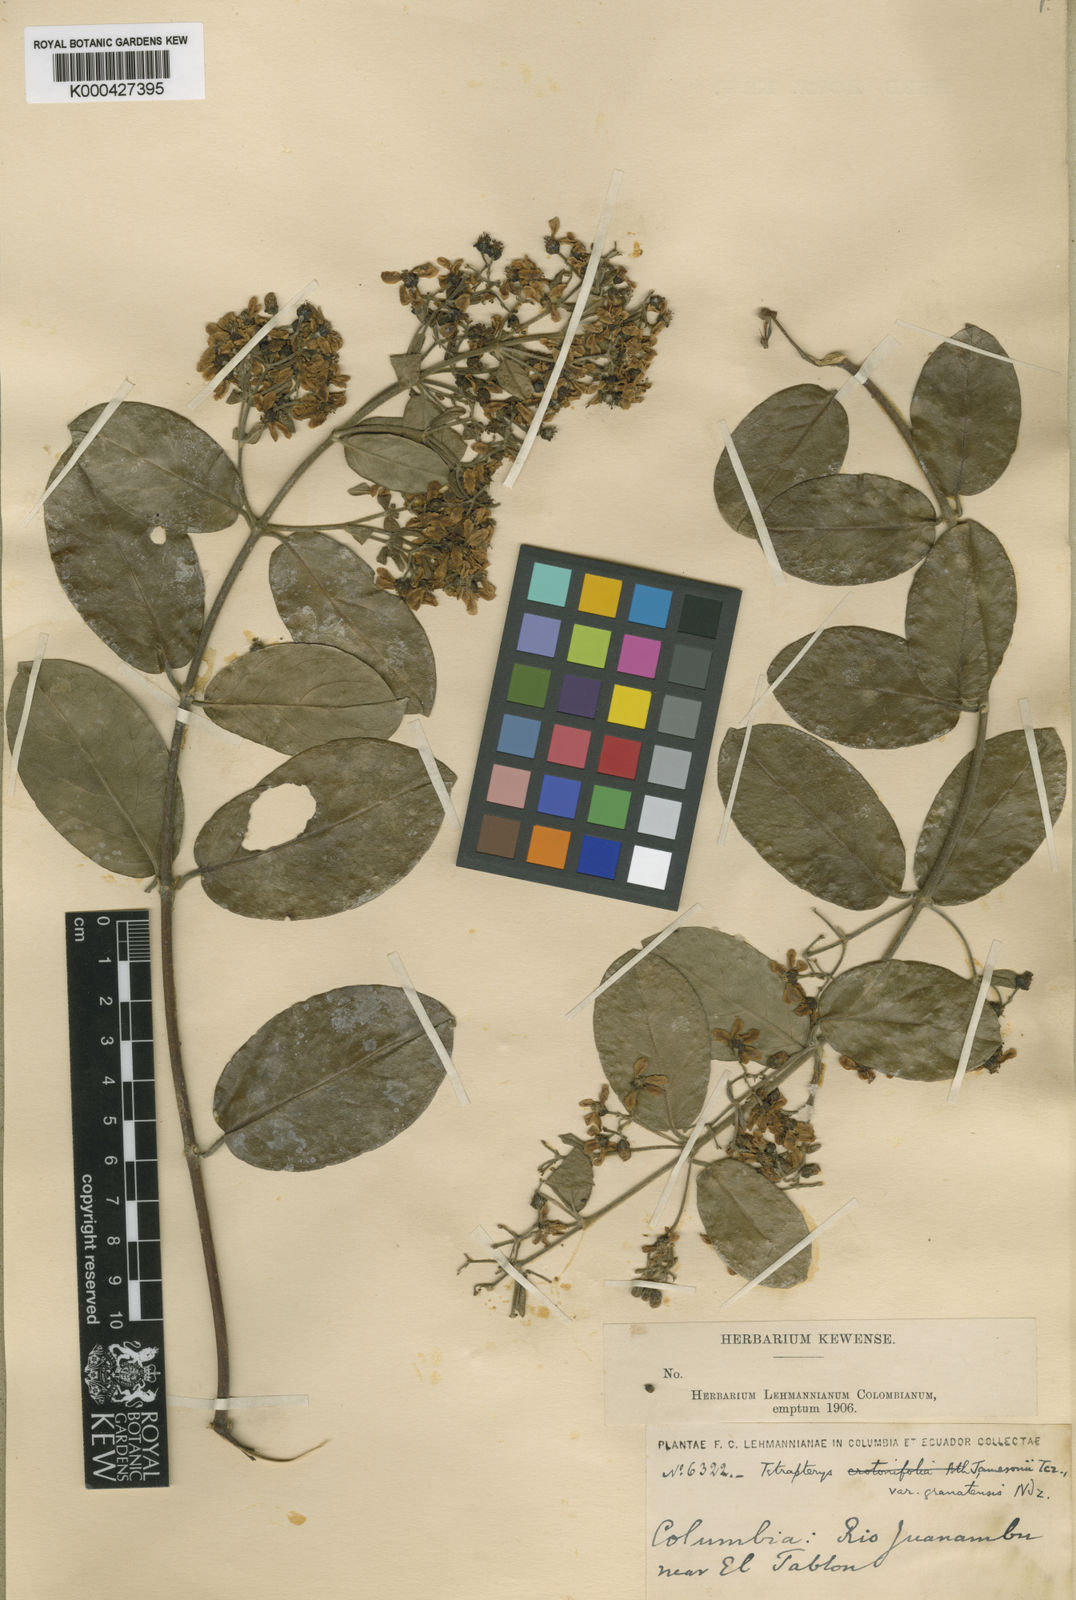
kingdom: Plantae
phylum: Tracheophyta
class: Magnoliopsida
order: Malpighiales
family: Malpighiaceae
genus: Tetrapterys
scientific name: Tetrapterys benthamii
